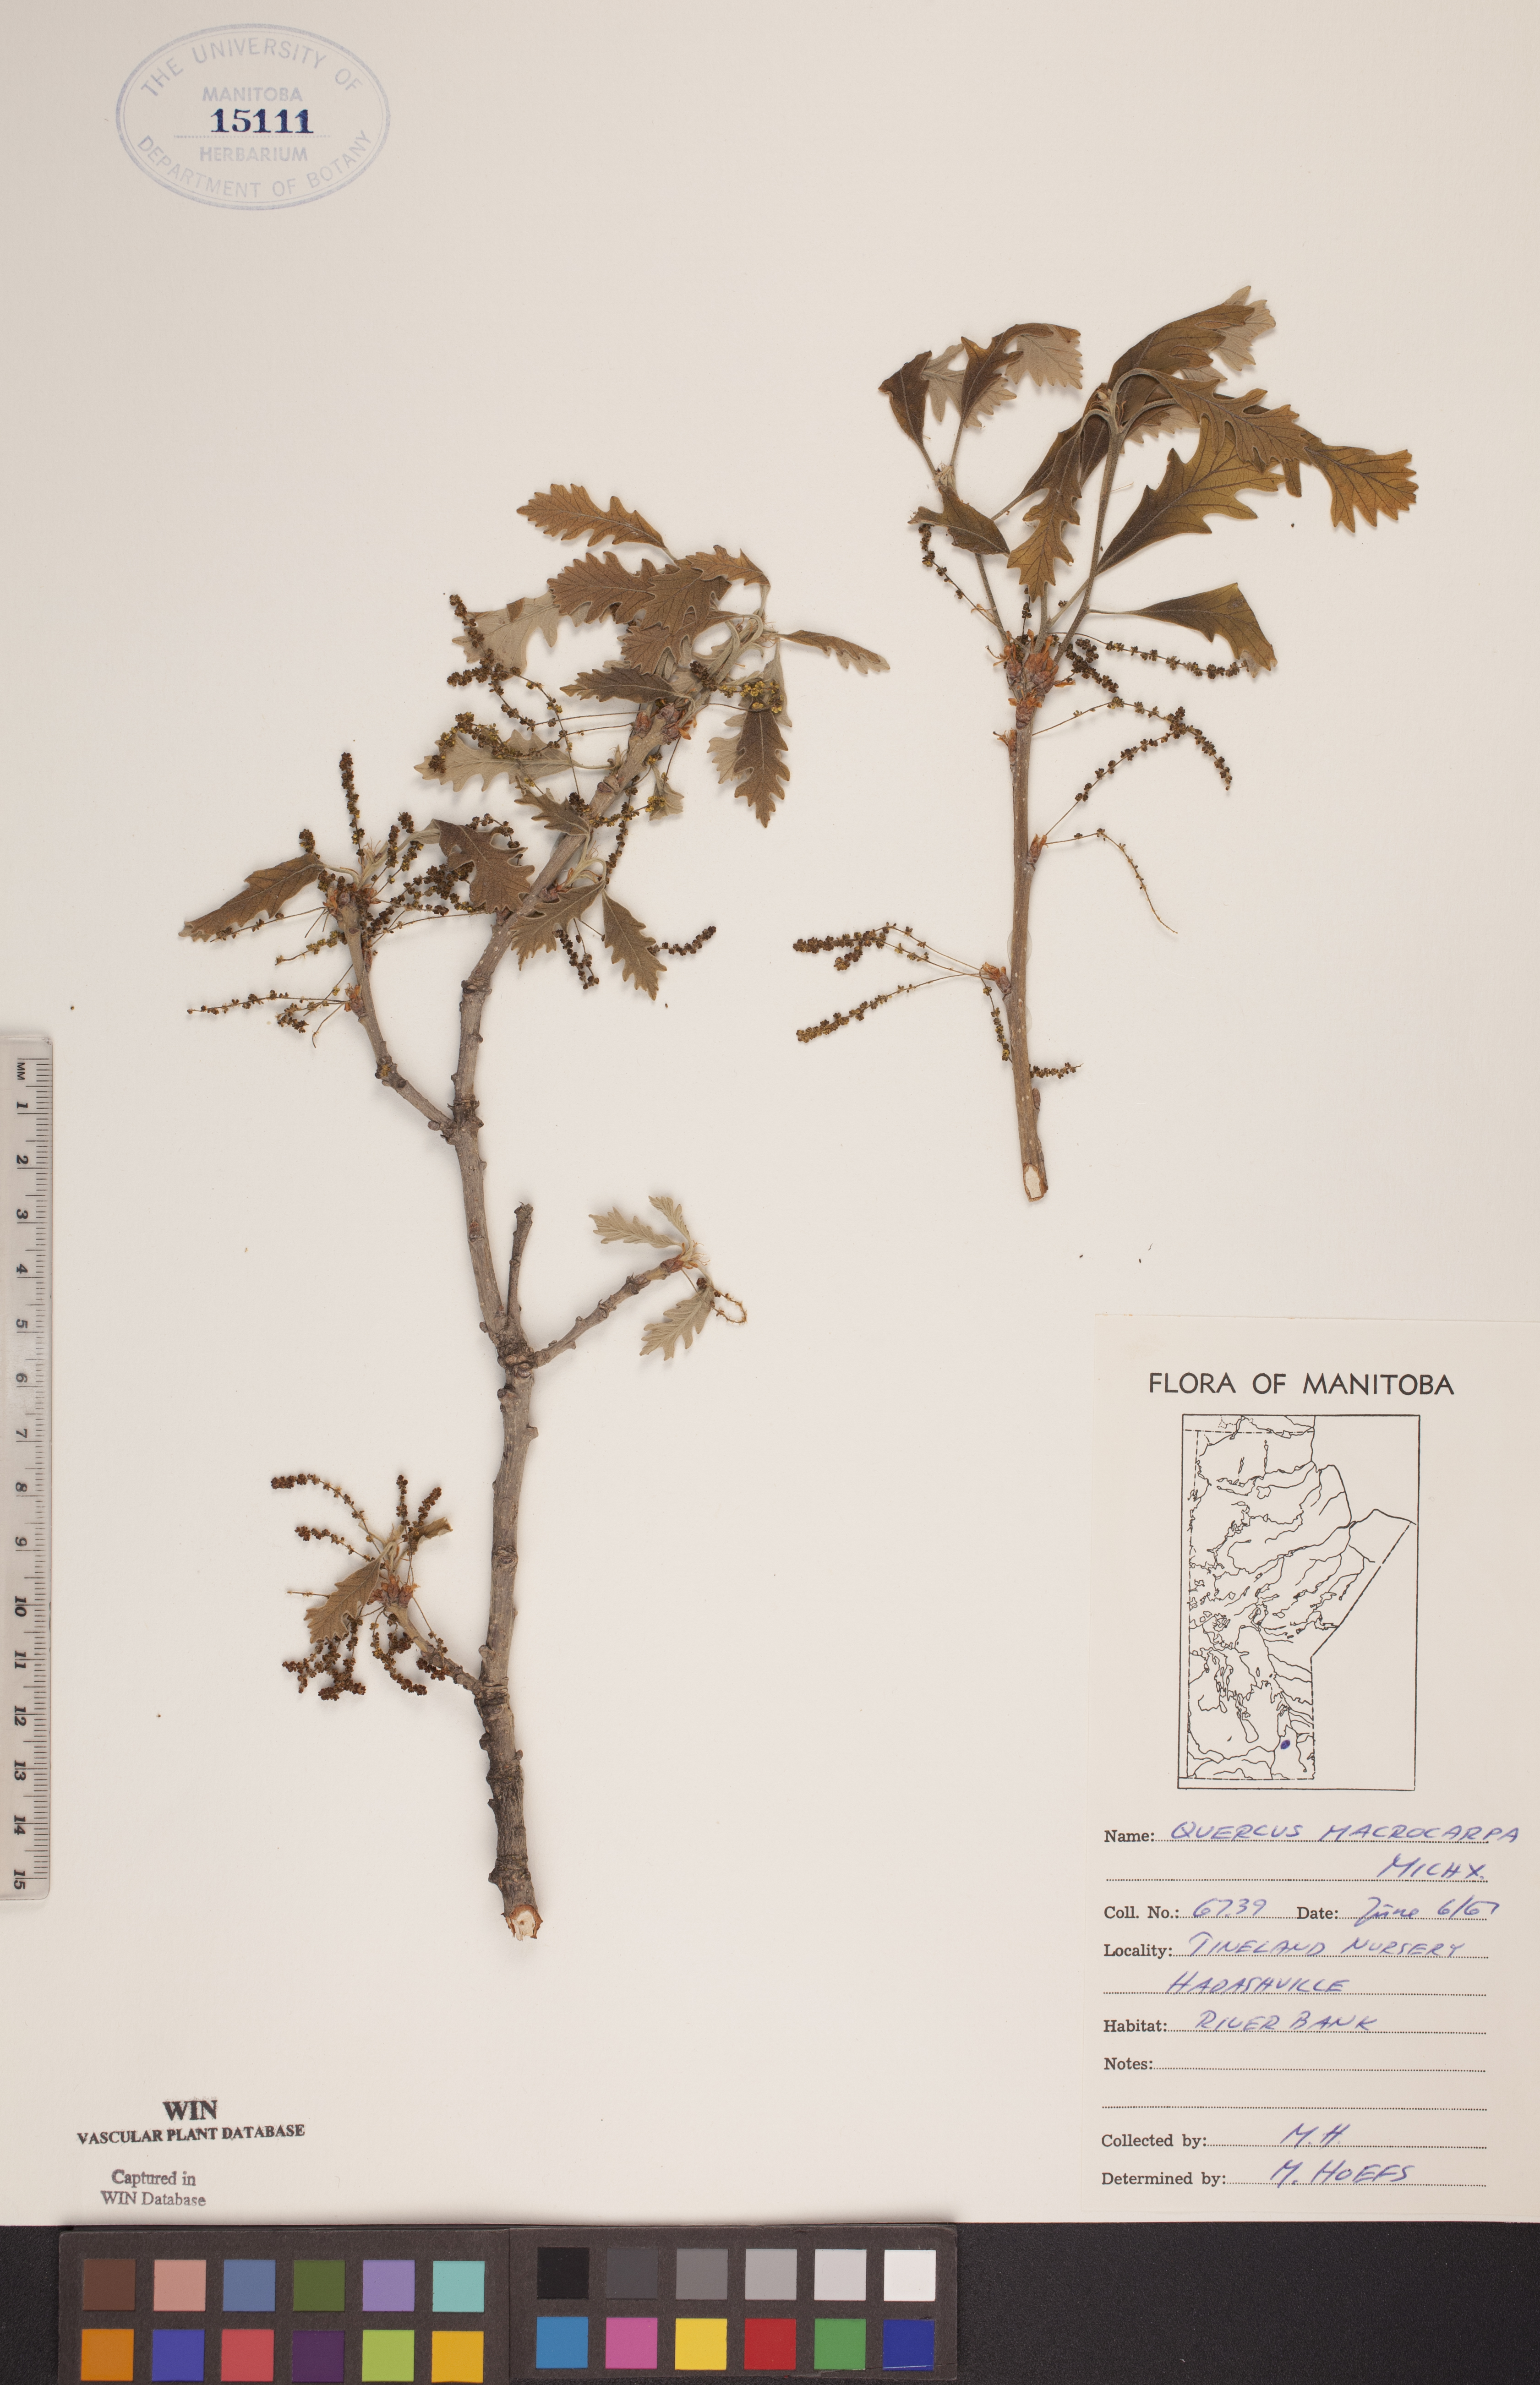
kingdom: Plantae
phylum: Tracheophyta
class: Magnoliopsida
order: Fagales
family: Fagaceae
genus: Quercus
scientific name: Quercus macrocarpa
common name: Bur oak
